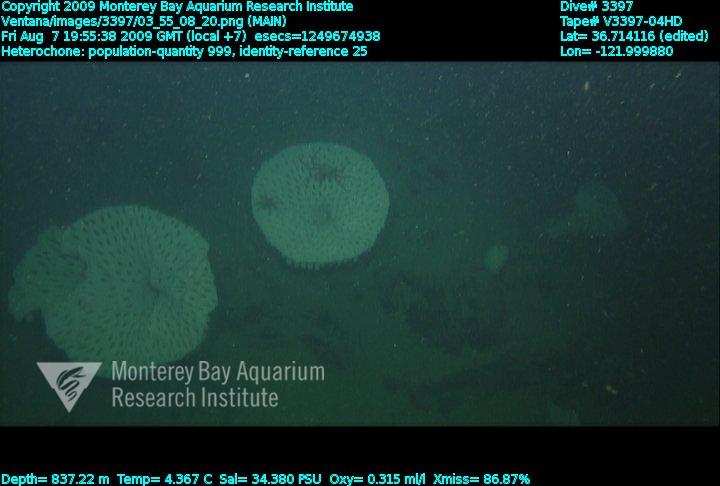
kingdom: Animalia
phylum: Porifera
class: Hexactinellida
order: Sceptrulophora
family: Aphrocallistidae
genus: Heterochone
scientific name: Heterochone
